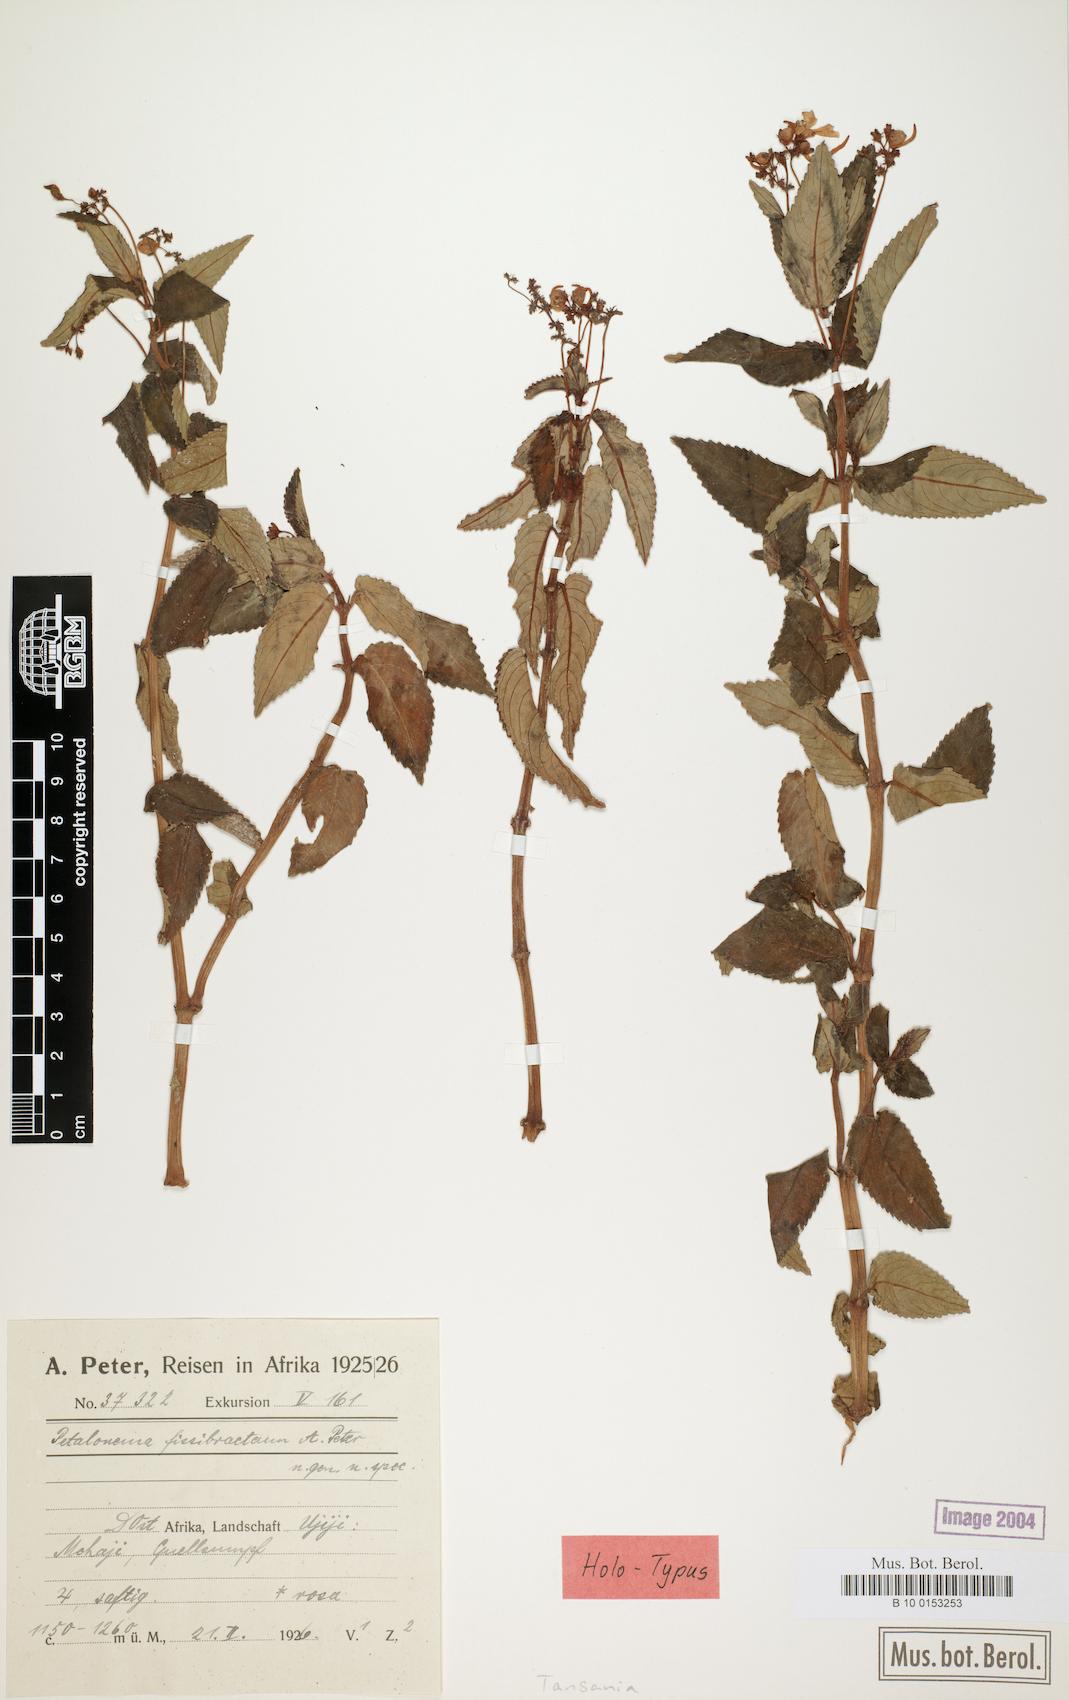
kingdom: Plantae
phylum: Tracheophyta
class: Magnoliopsida
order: Ericales
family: Balsaminaceae
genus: Impatiens
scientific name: Impatiens briartii
